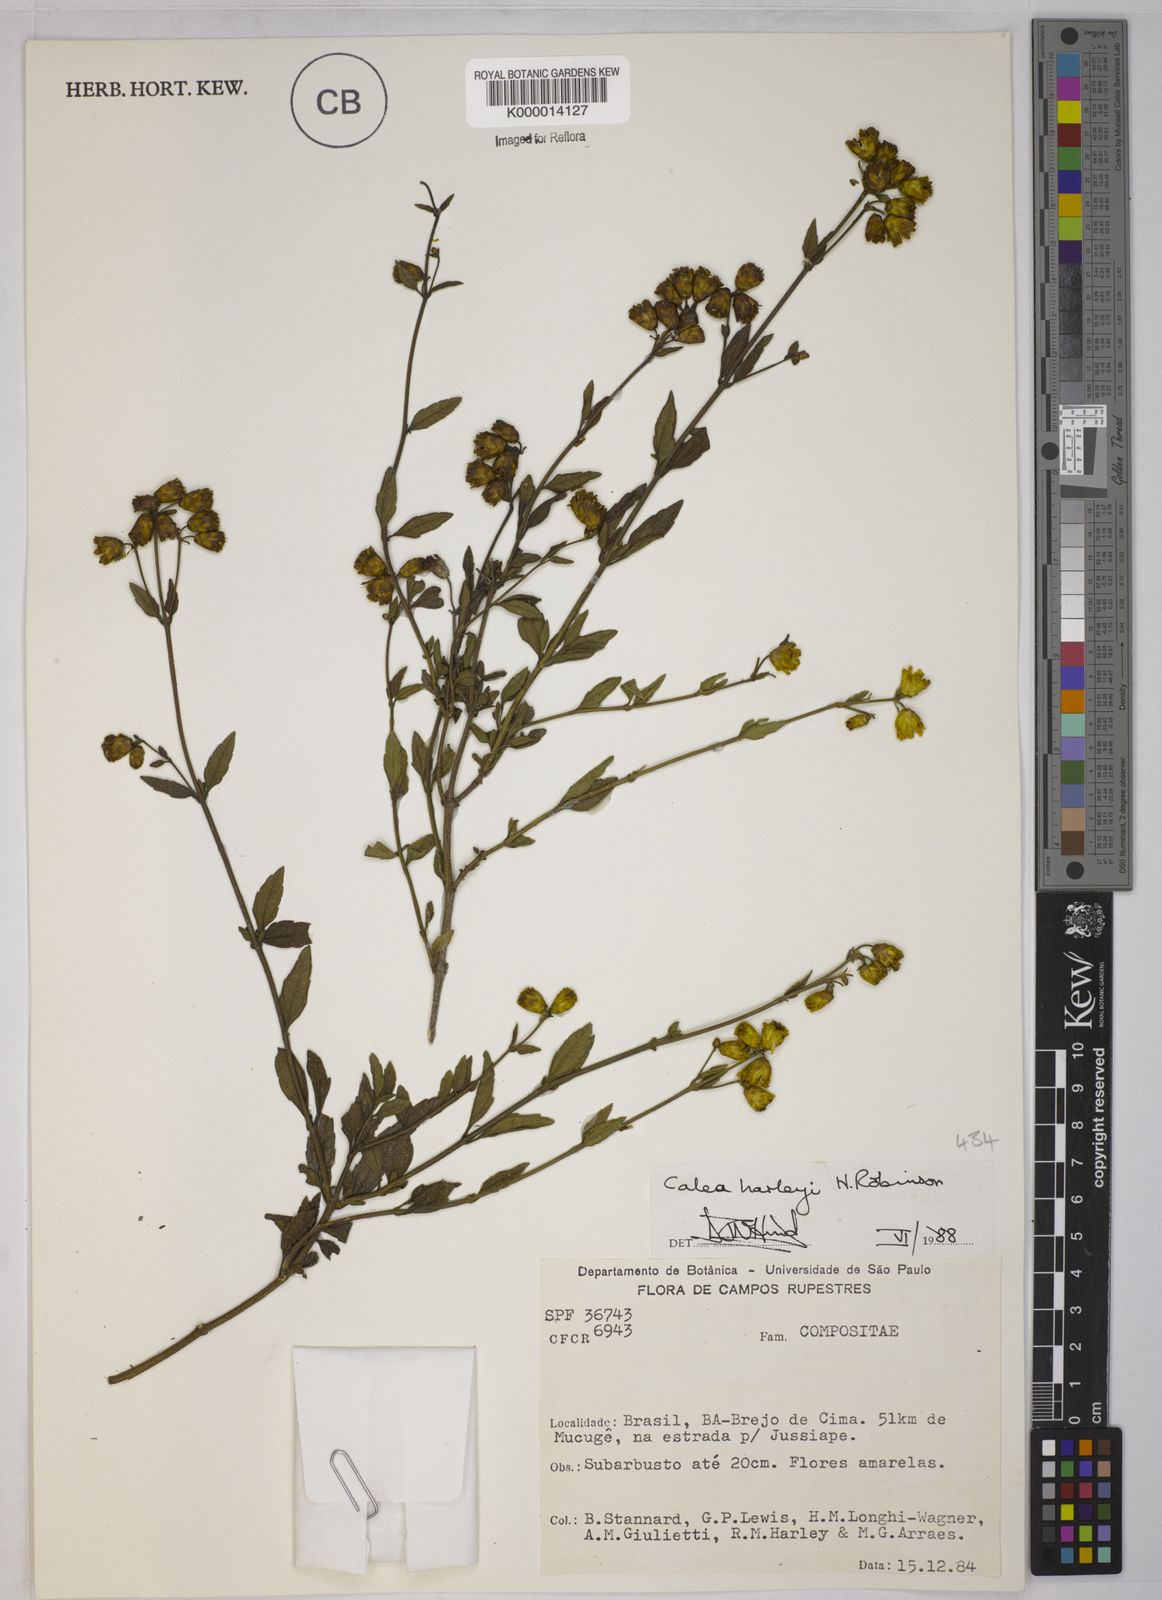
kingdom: Plantae
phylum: Tracheophyta
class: Magnoliopsida
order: Asterales
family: Asteraceae
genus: Calea
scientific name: Calea harleyi
